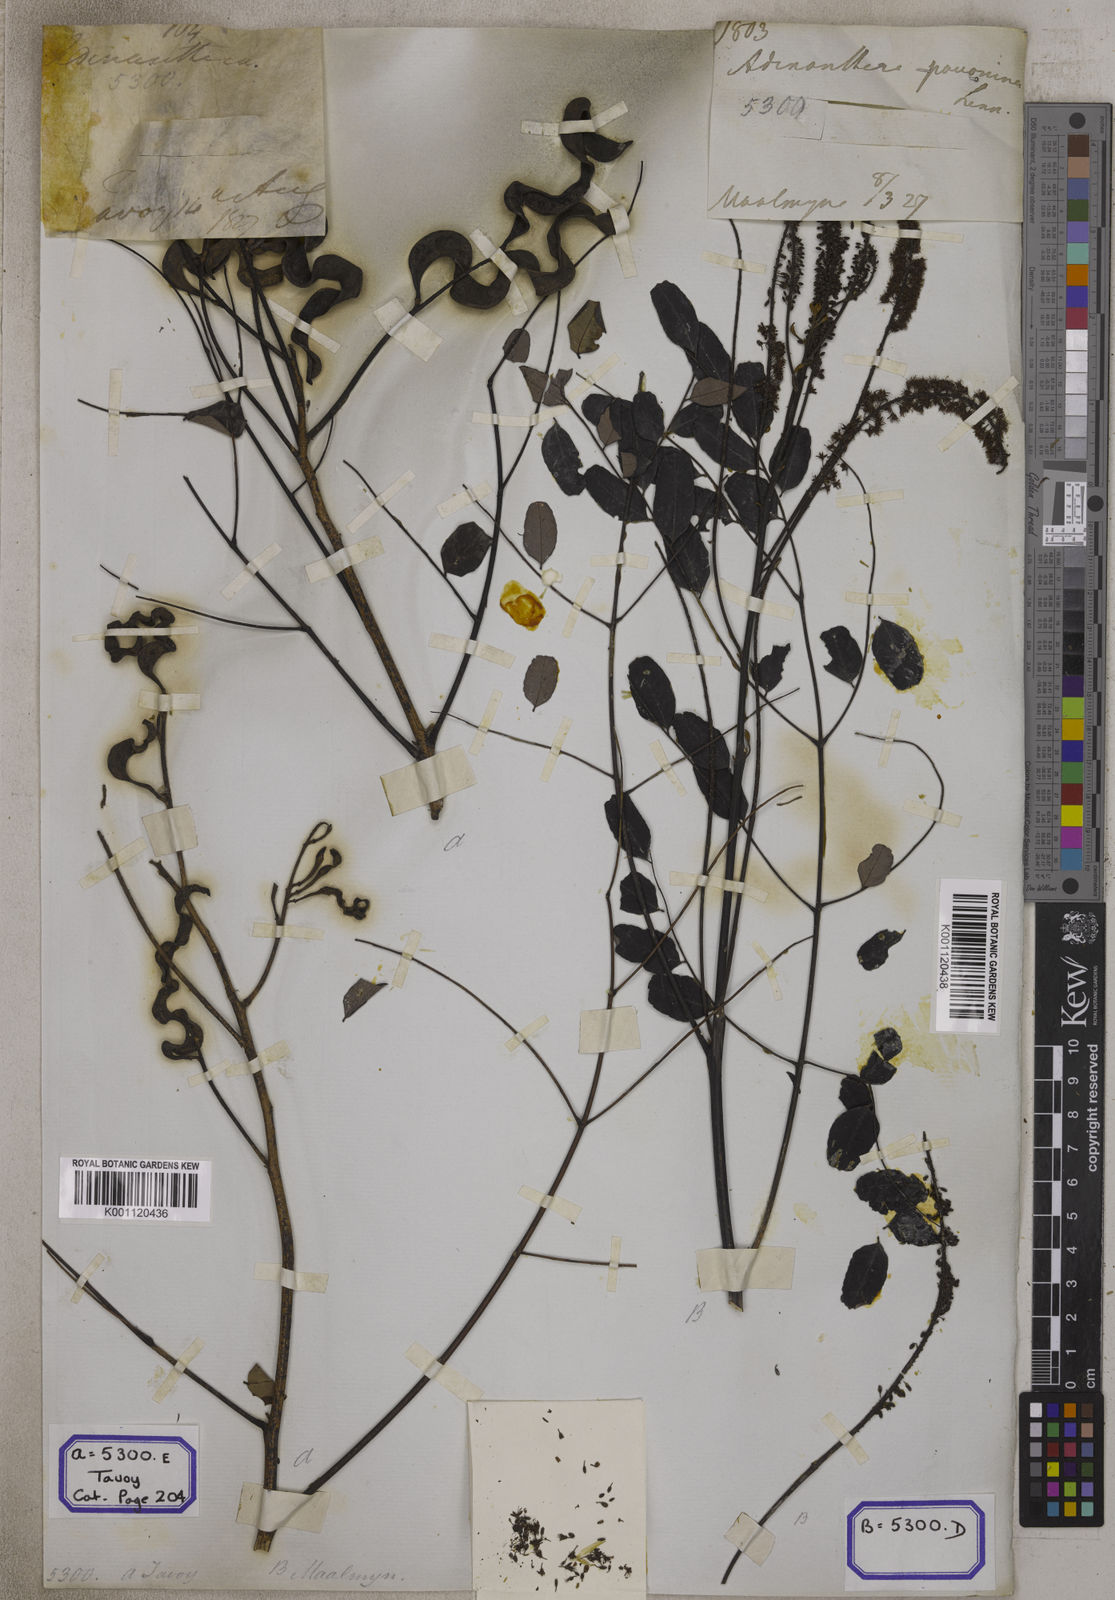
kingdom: Plantae
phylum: Tracheophyta
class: Magnoliopsida
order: Fabales
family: Fabaceae
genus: Adenanthera
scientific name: Adenanthera pavonina
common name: Red beadtree
